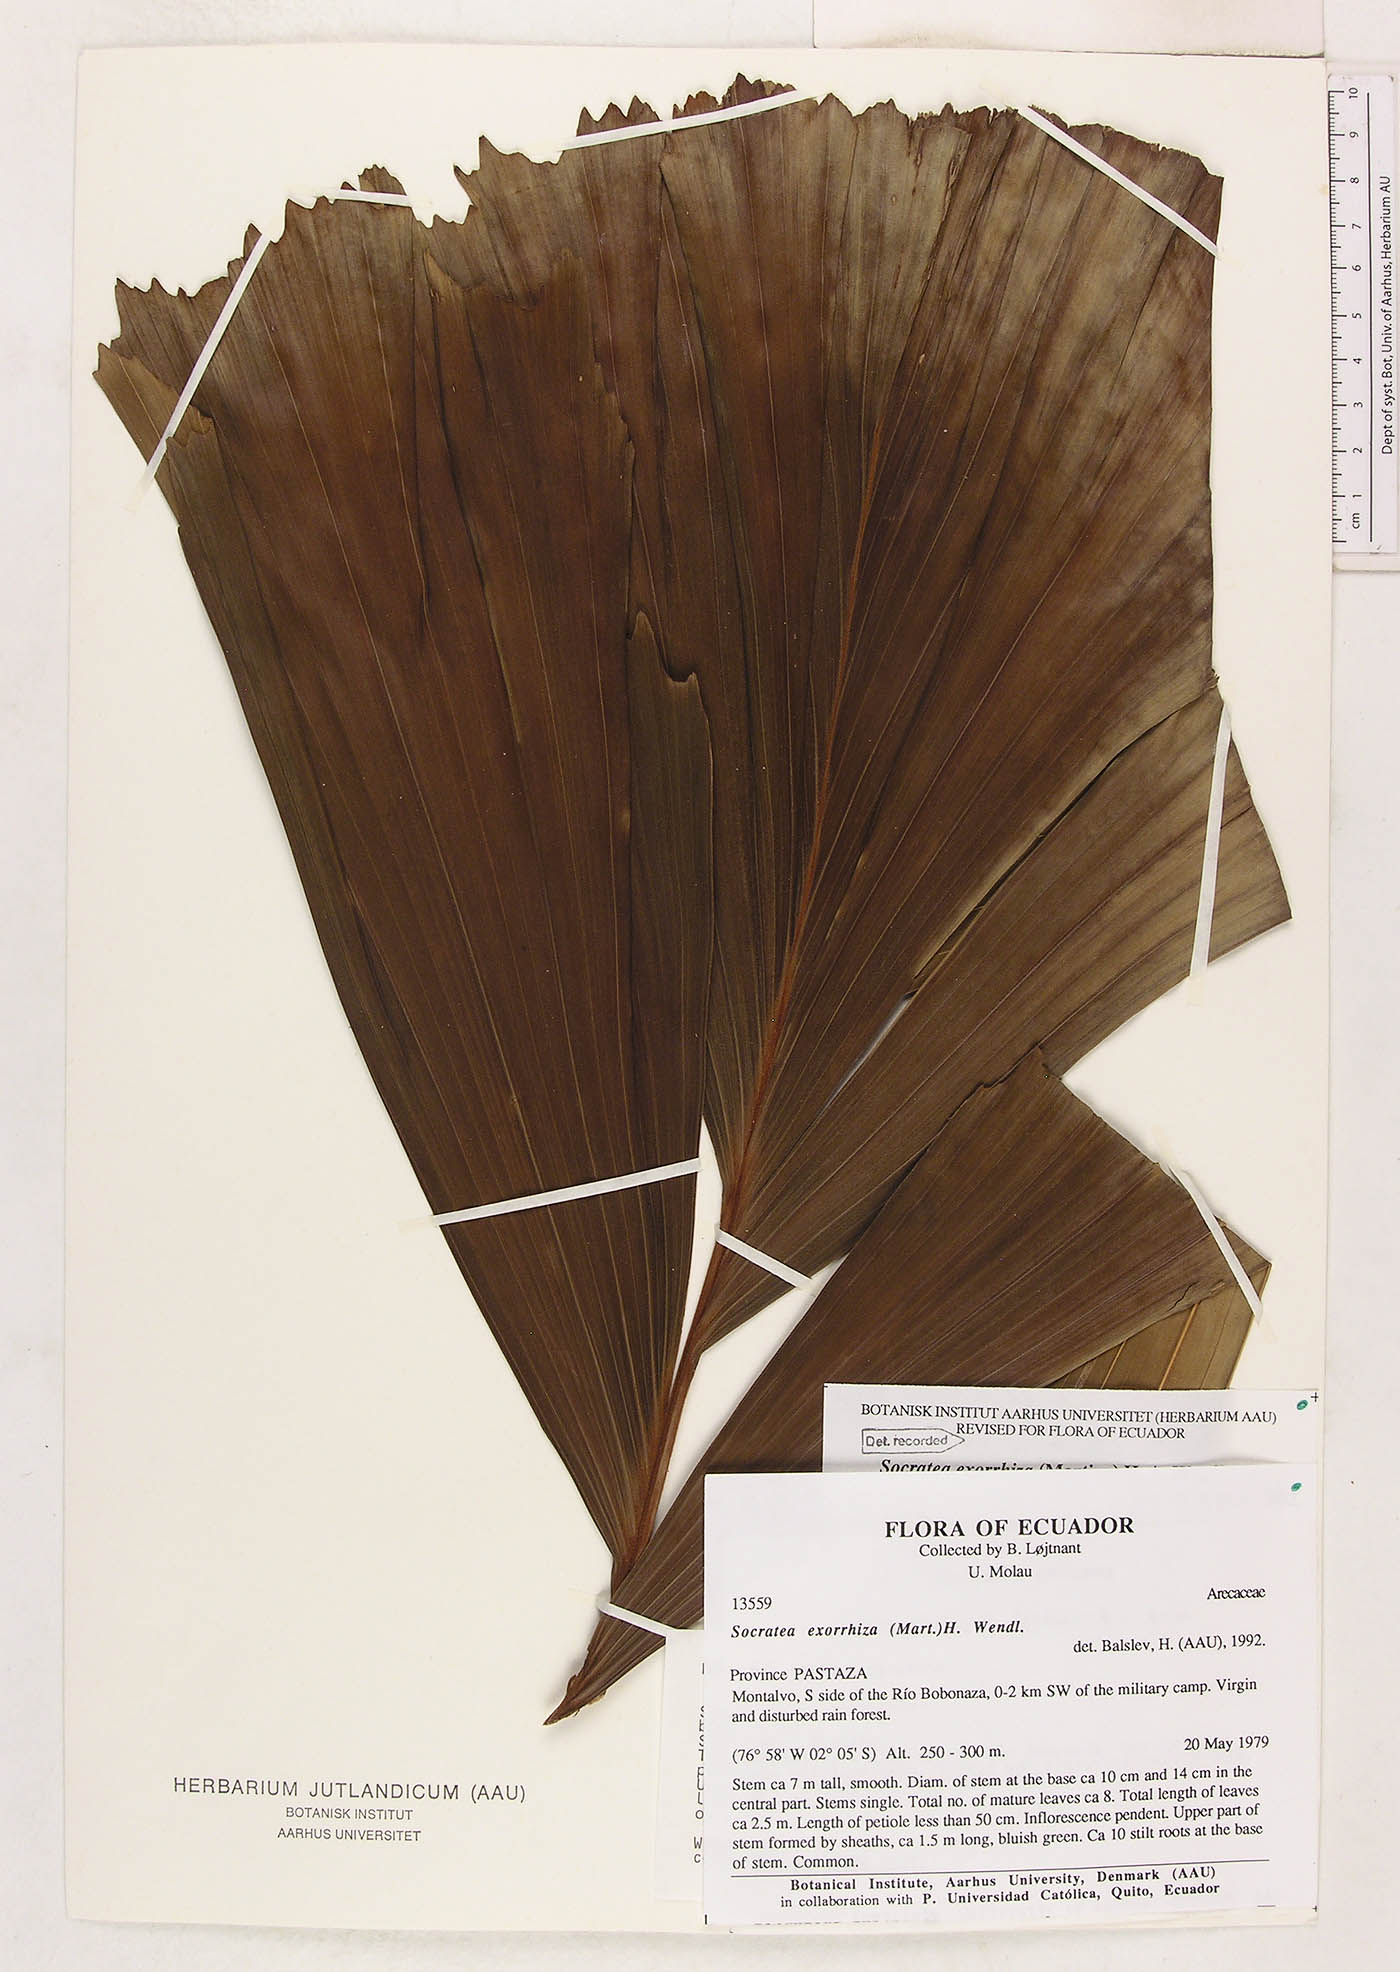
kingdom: Plantae
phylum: Tracheophyta
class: Liliopsida
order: Arecales
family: Arecaceae
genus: Socratea
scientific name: Socratea exorrhiza
